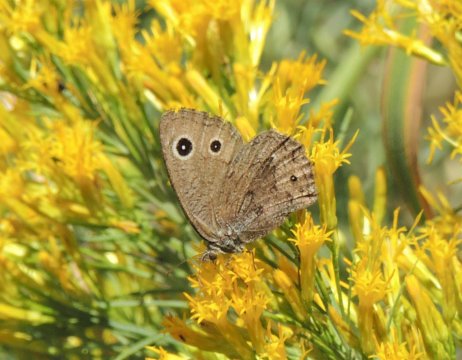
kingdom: Animalia
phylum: Arthropoda
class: Insecta
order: Lepidoptera
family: Nymphalidae
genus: Cercyonis
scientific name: Cercyonis oetus
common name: Small Wood-Nymph
